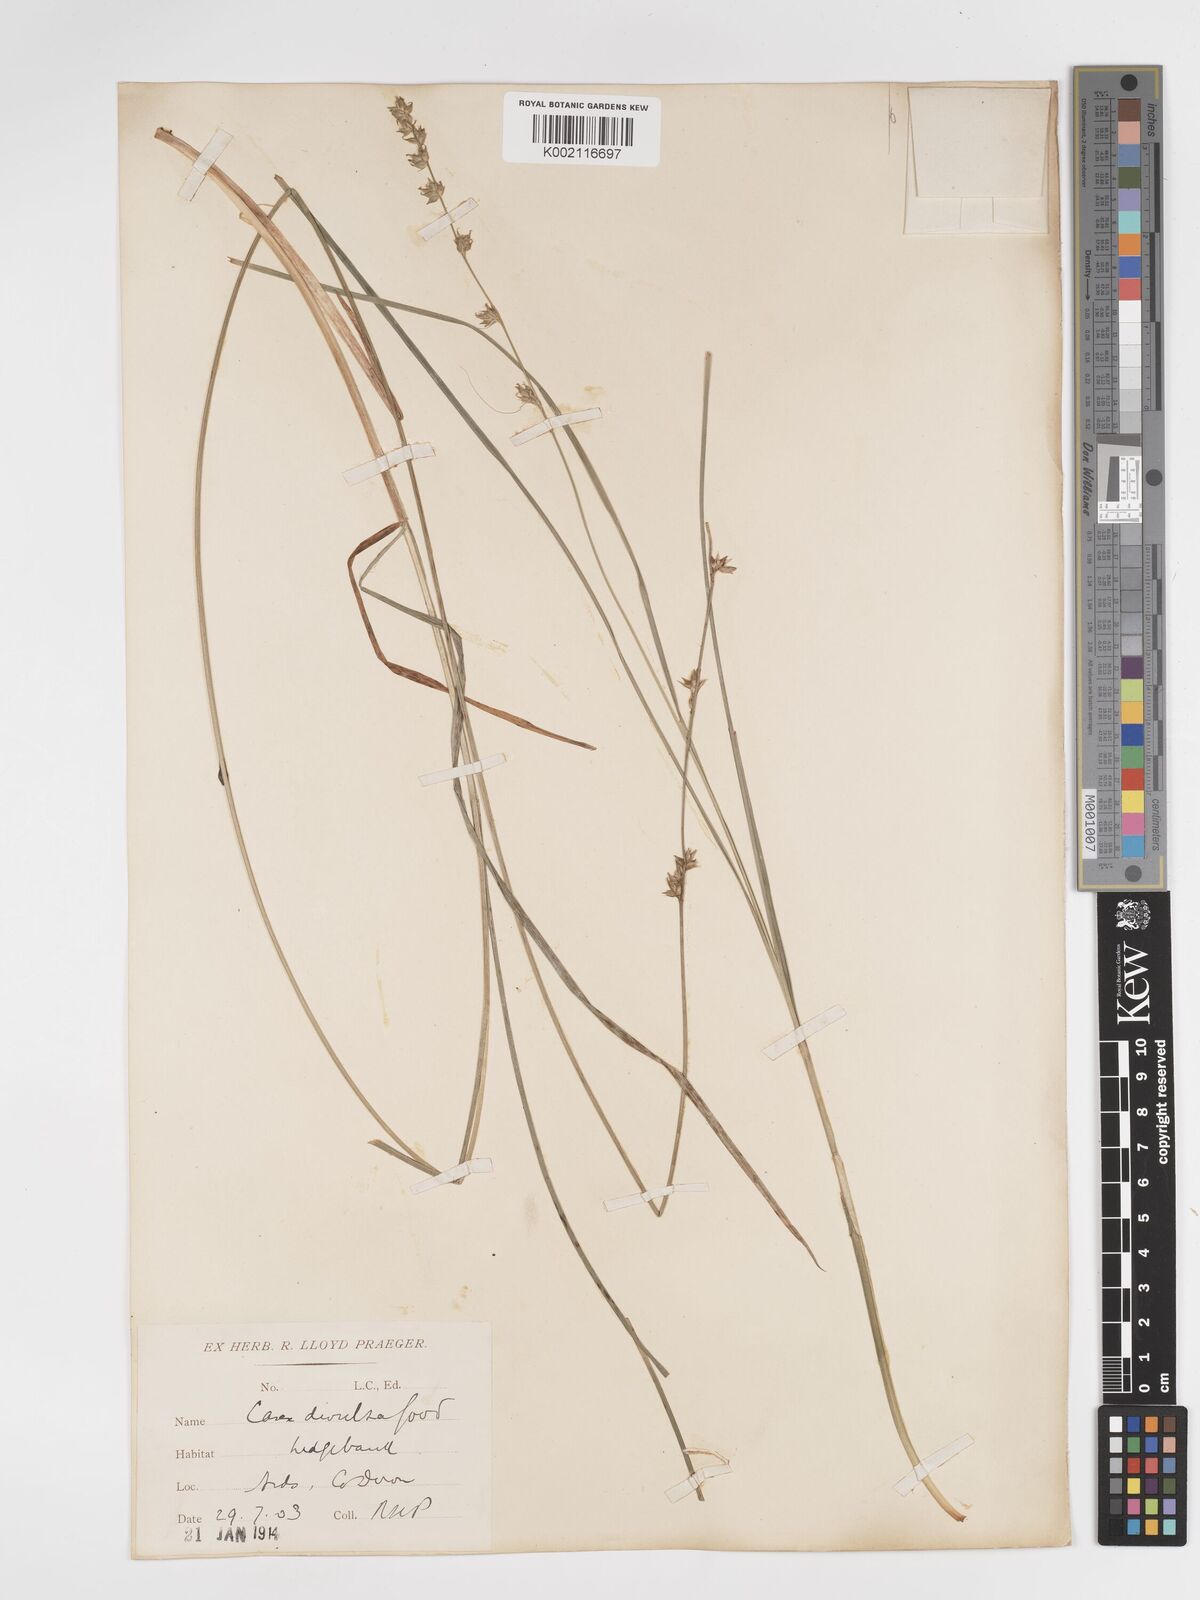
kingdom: Plantae
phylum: Tracheophyta
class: Liliopsida
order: Poales
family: Cyperaceae
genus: Carex
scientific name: Carex divulsa
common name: Grassland sedge
